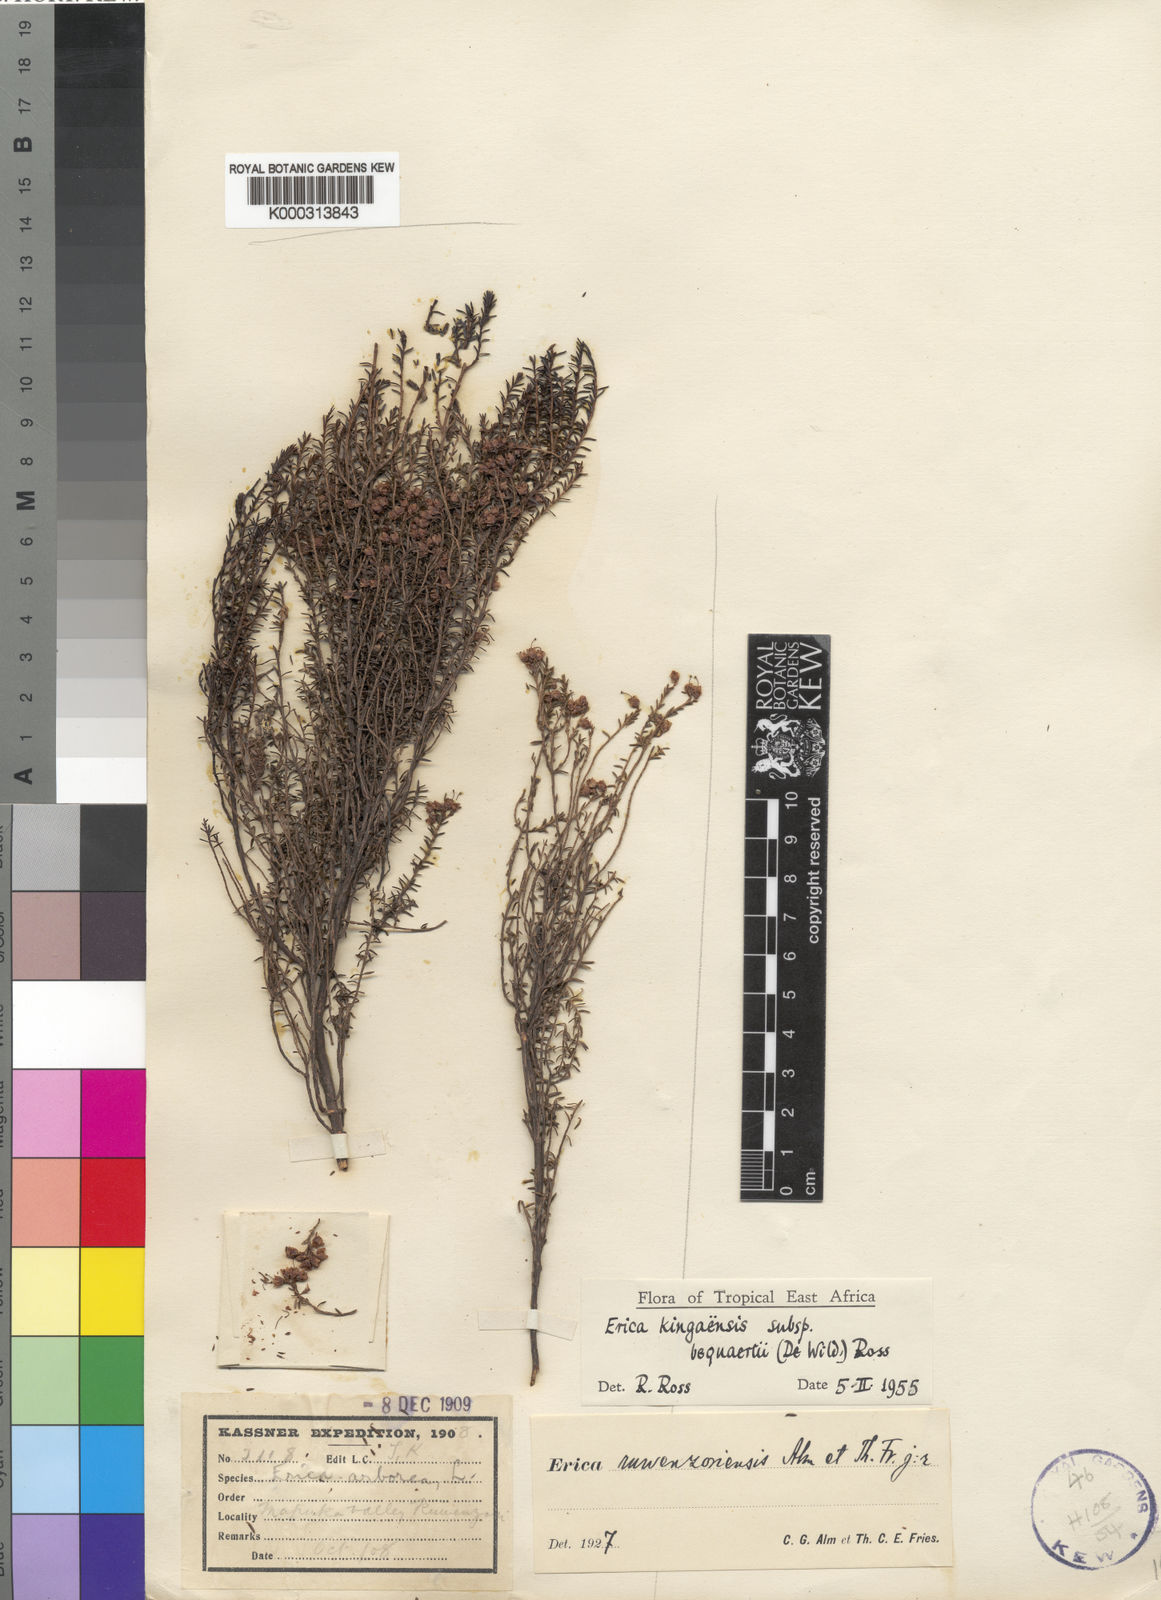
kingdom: Plantae
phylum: Tracheophyta
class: Magnoliopsida
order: Ericales
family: Ericaceae
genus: Erica
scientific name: Erica kingaensis
